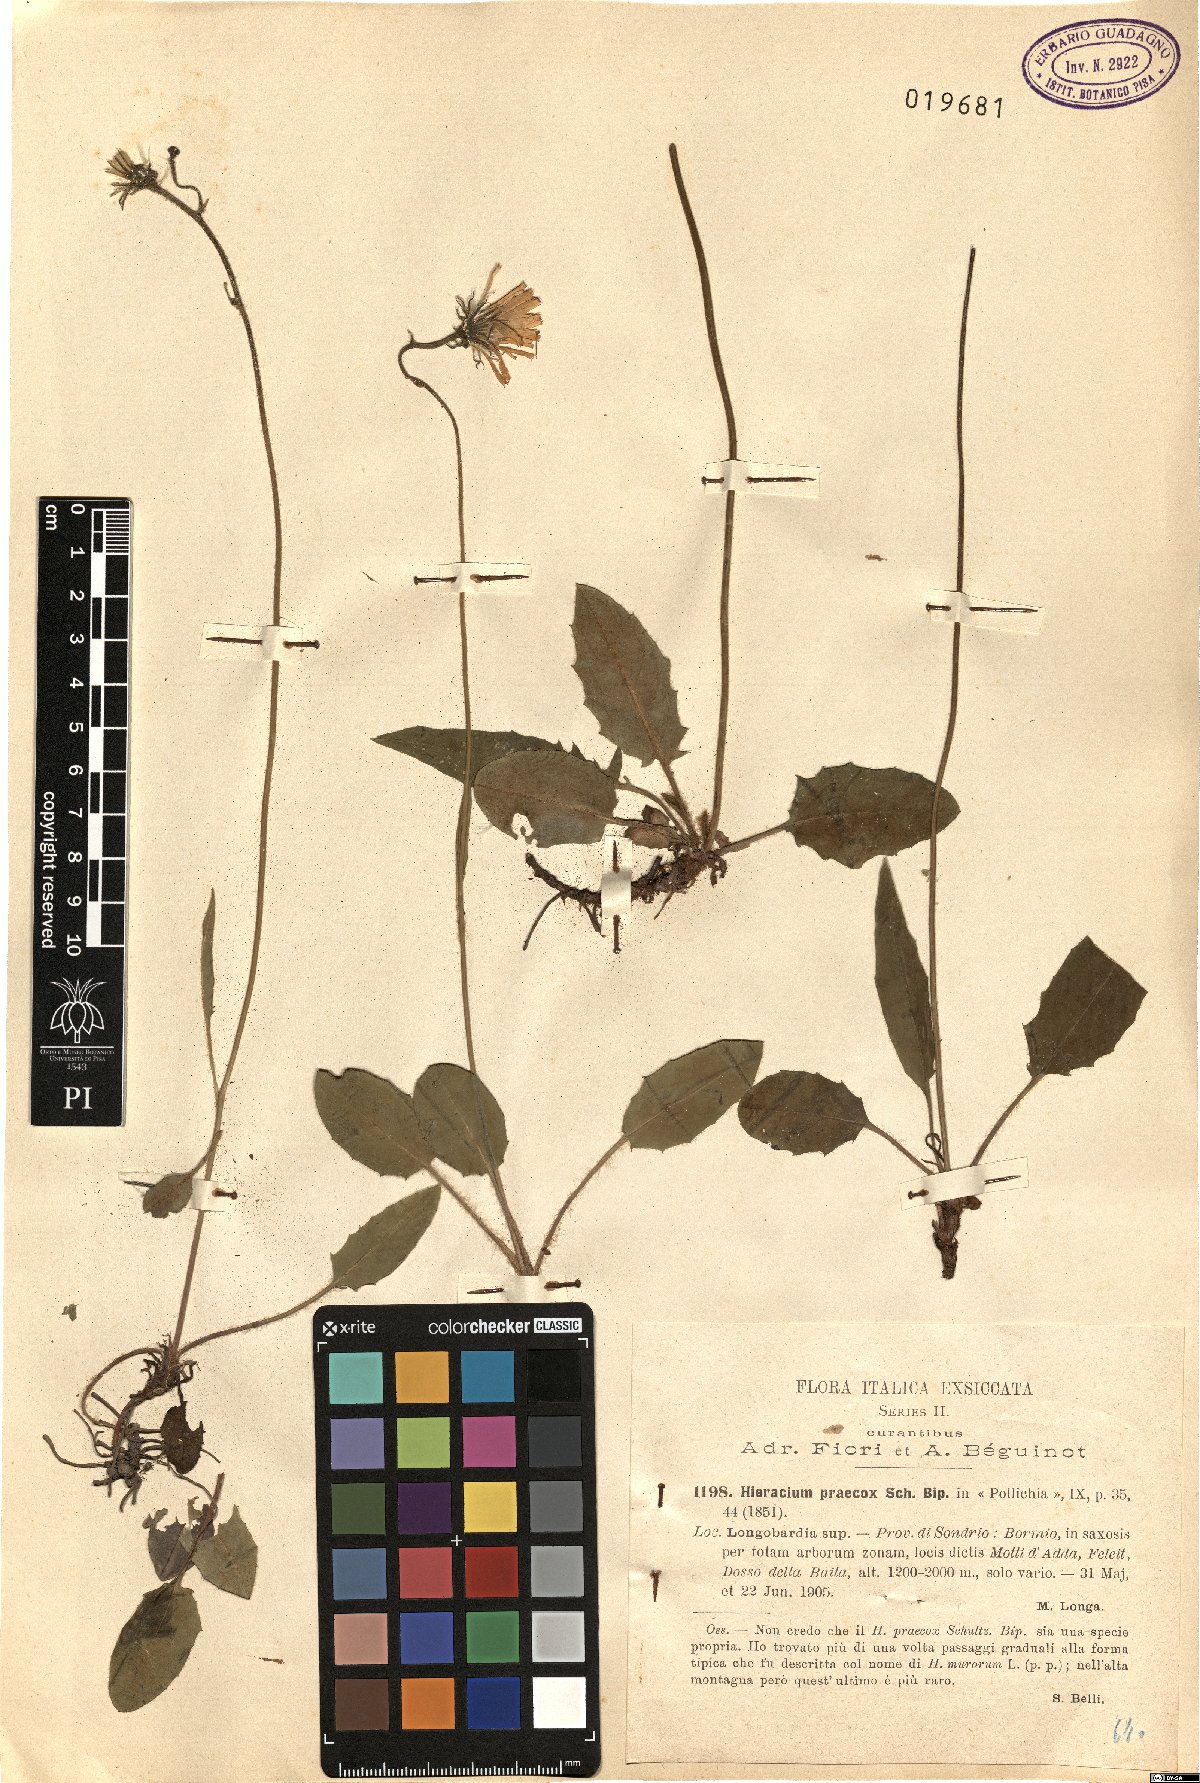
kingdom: Plantae
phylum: Tracheophyta
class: Magnoliopsida
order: Asterales
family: Asteraceae
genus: Hieracium
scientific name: Hieracium glaucinum
